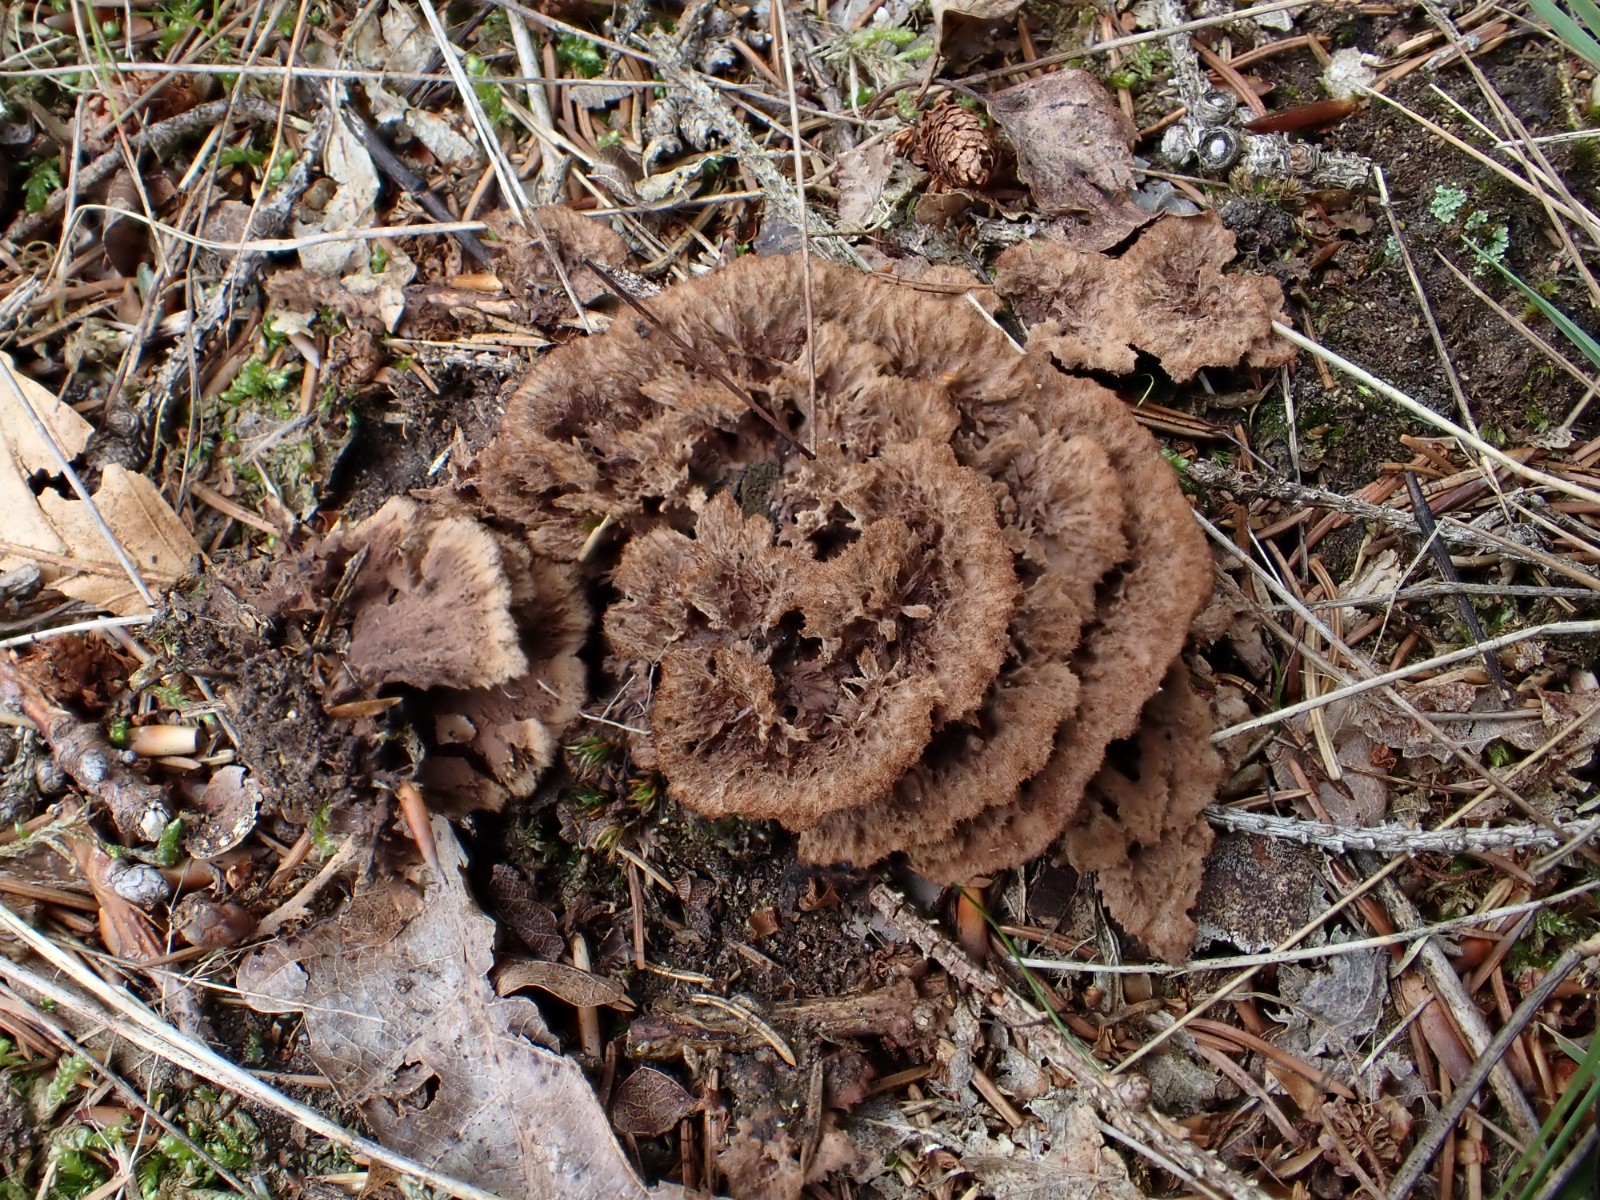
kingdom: Fungi
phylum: Basidiomycota
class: Agaricomycetes
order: Thelephorales
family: Thelephoraceae
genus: Thelephora
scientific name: Thelephora terrestris
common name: fliget frynsesvamp
